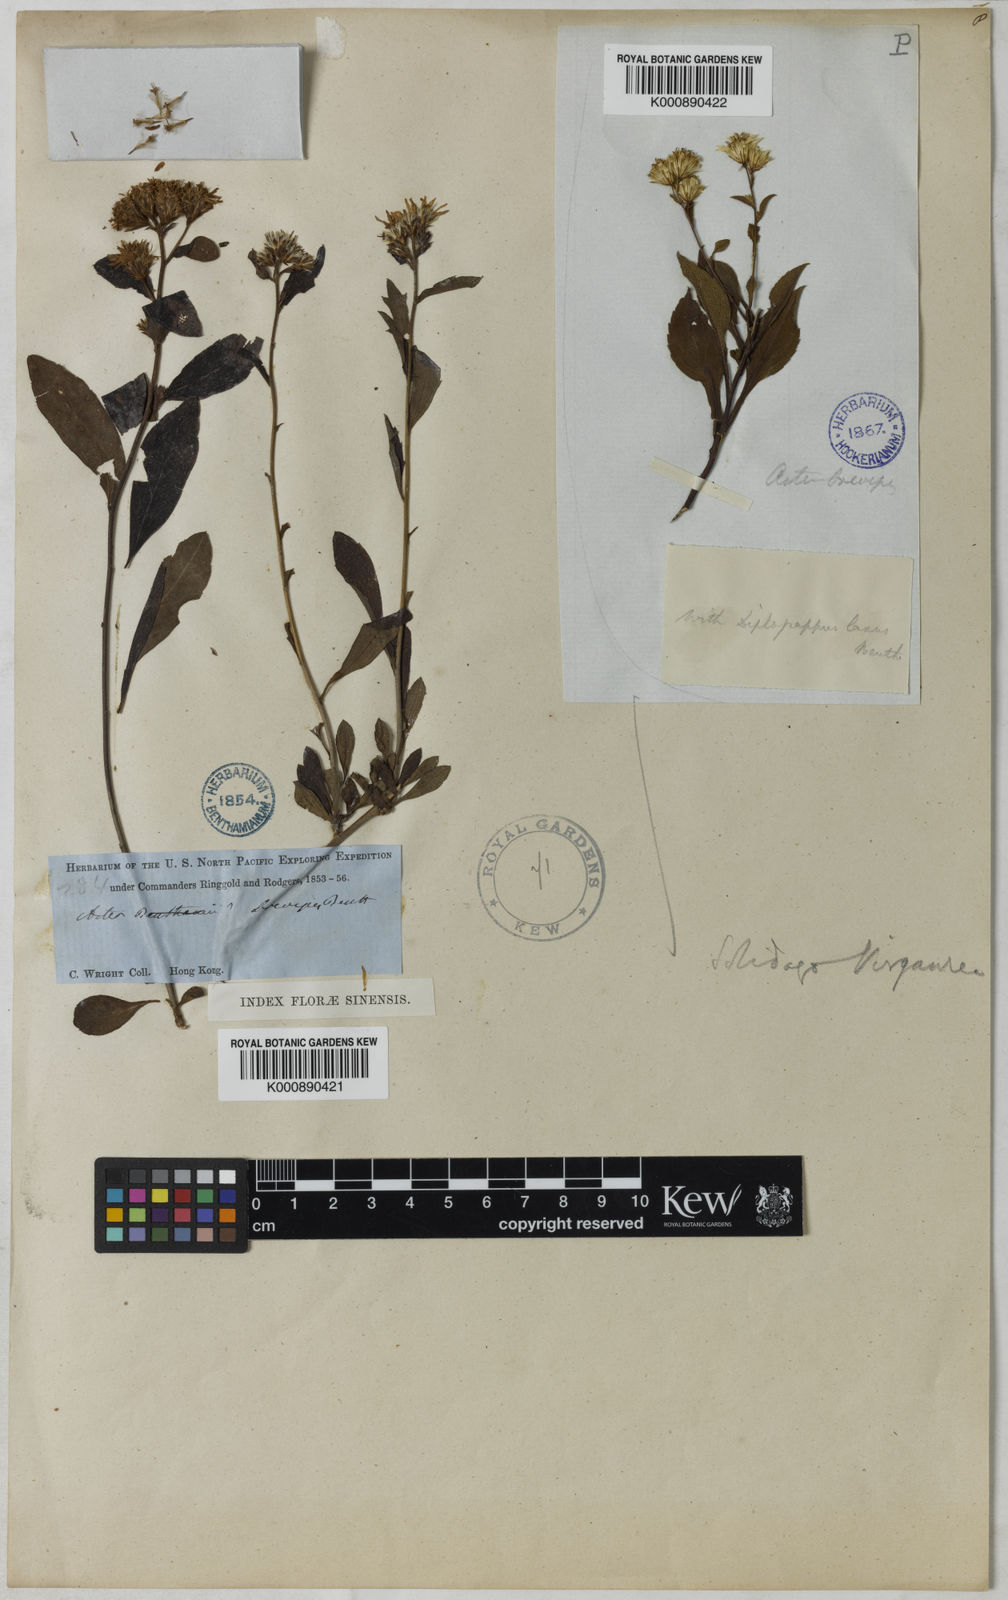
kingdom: Plantae
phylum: Tracheophyta
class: Magnoliopsida
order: Asterales
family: Asteraceae
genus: Aster
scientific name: Aster baccharoides
